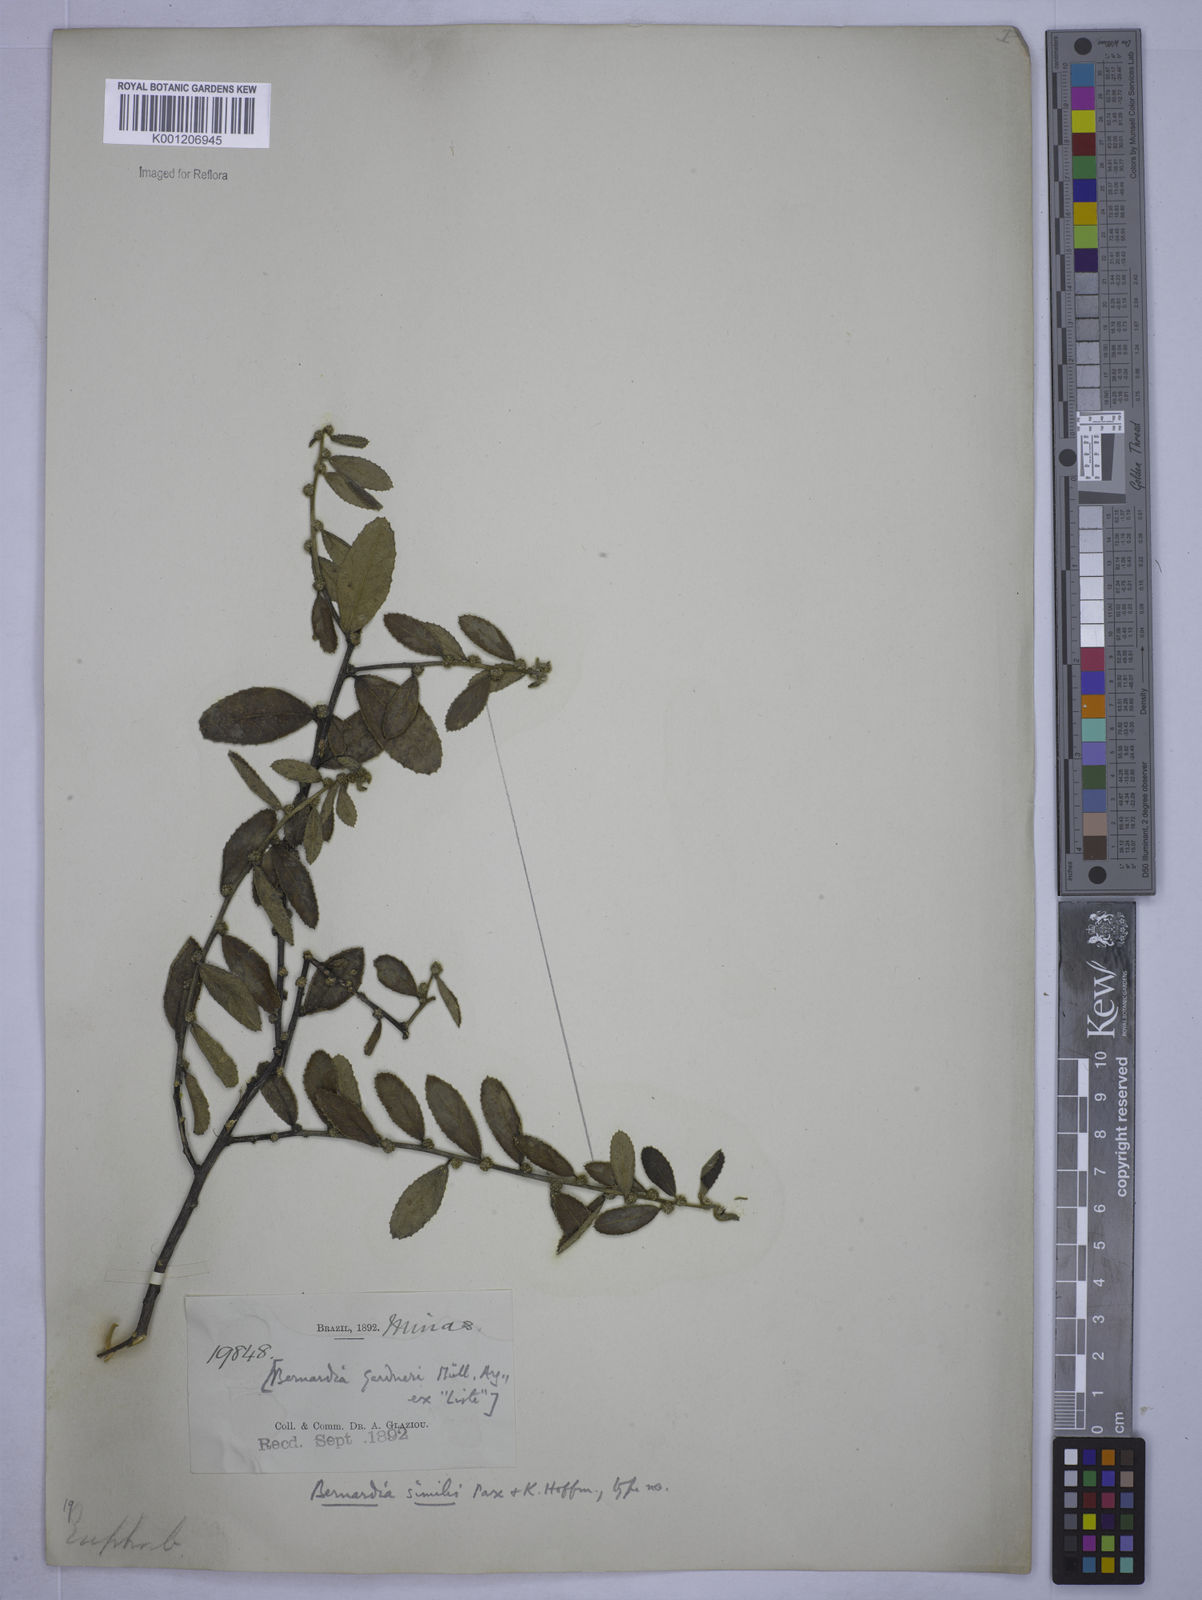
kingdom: Plantae
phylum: Tracheophyta
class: Magnoliopsida
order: Malpighiales
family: Euphorbiaceae
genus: Bernardia
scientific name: Bernardia similis
